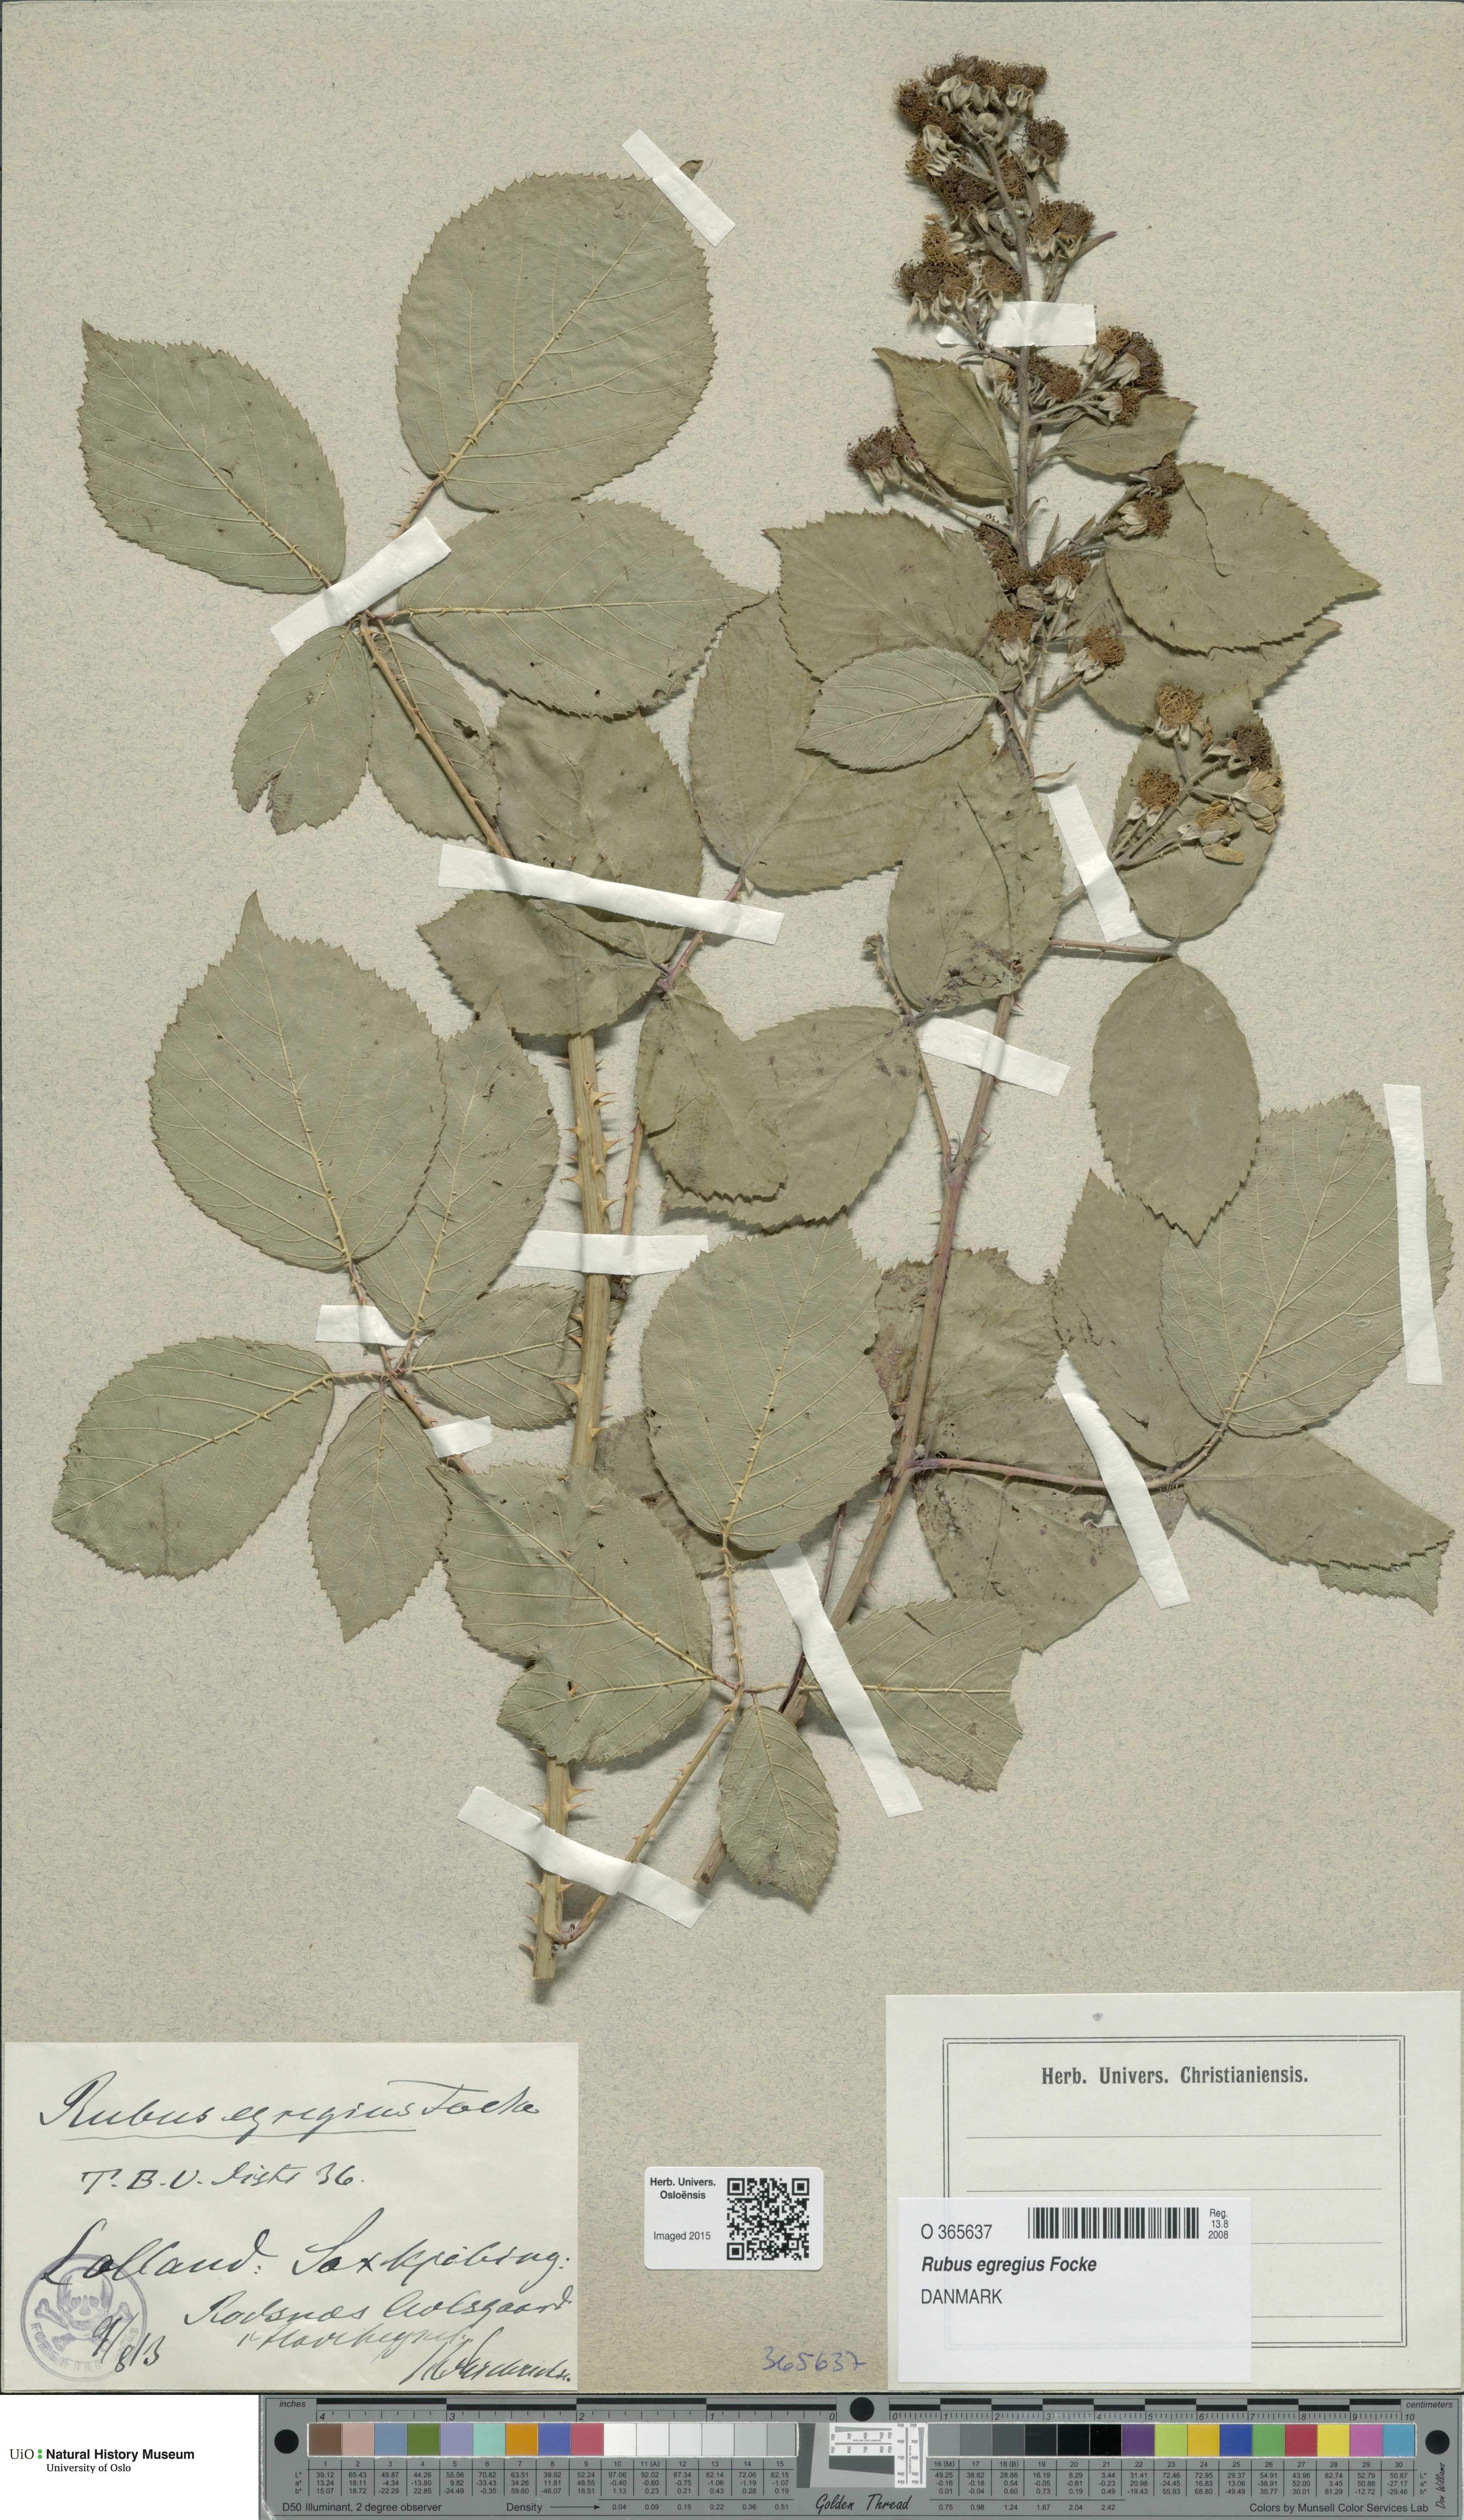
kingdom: Plantae
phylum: Tracheophyta
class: Magnoliopsida
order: Rosales
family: Rosaceae
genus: Rubus
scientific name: Rubus egregius
